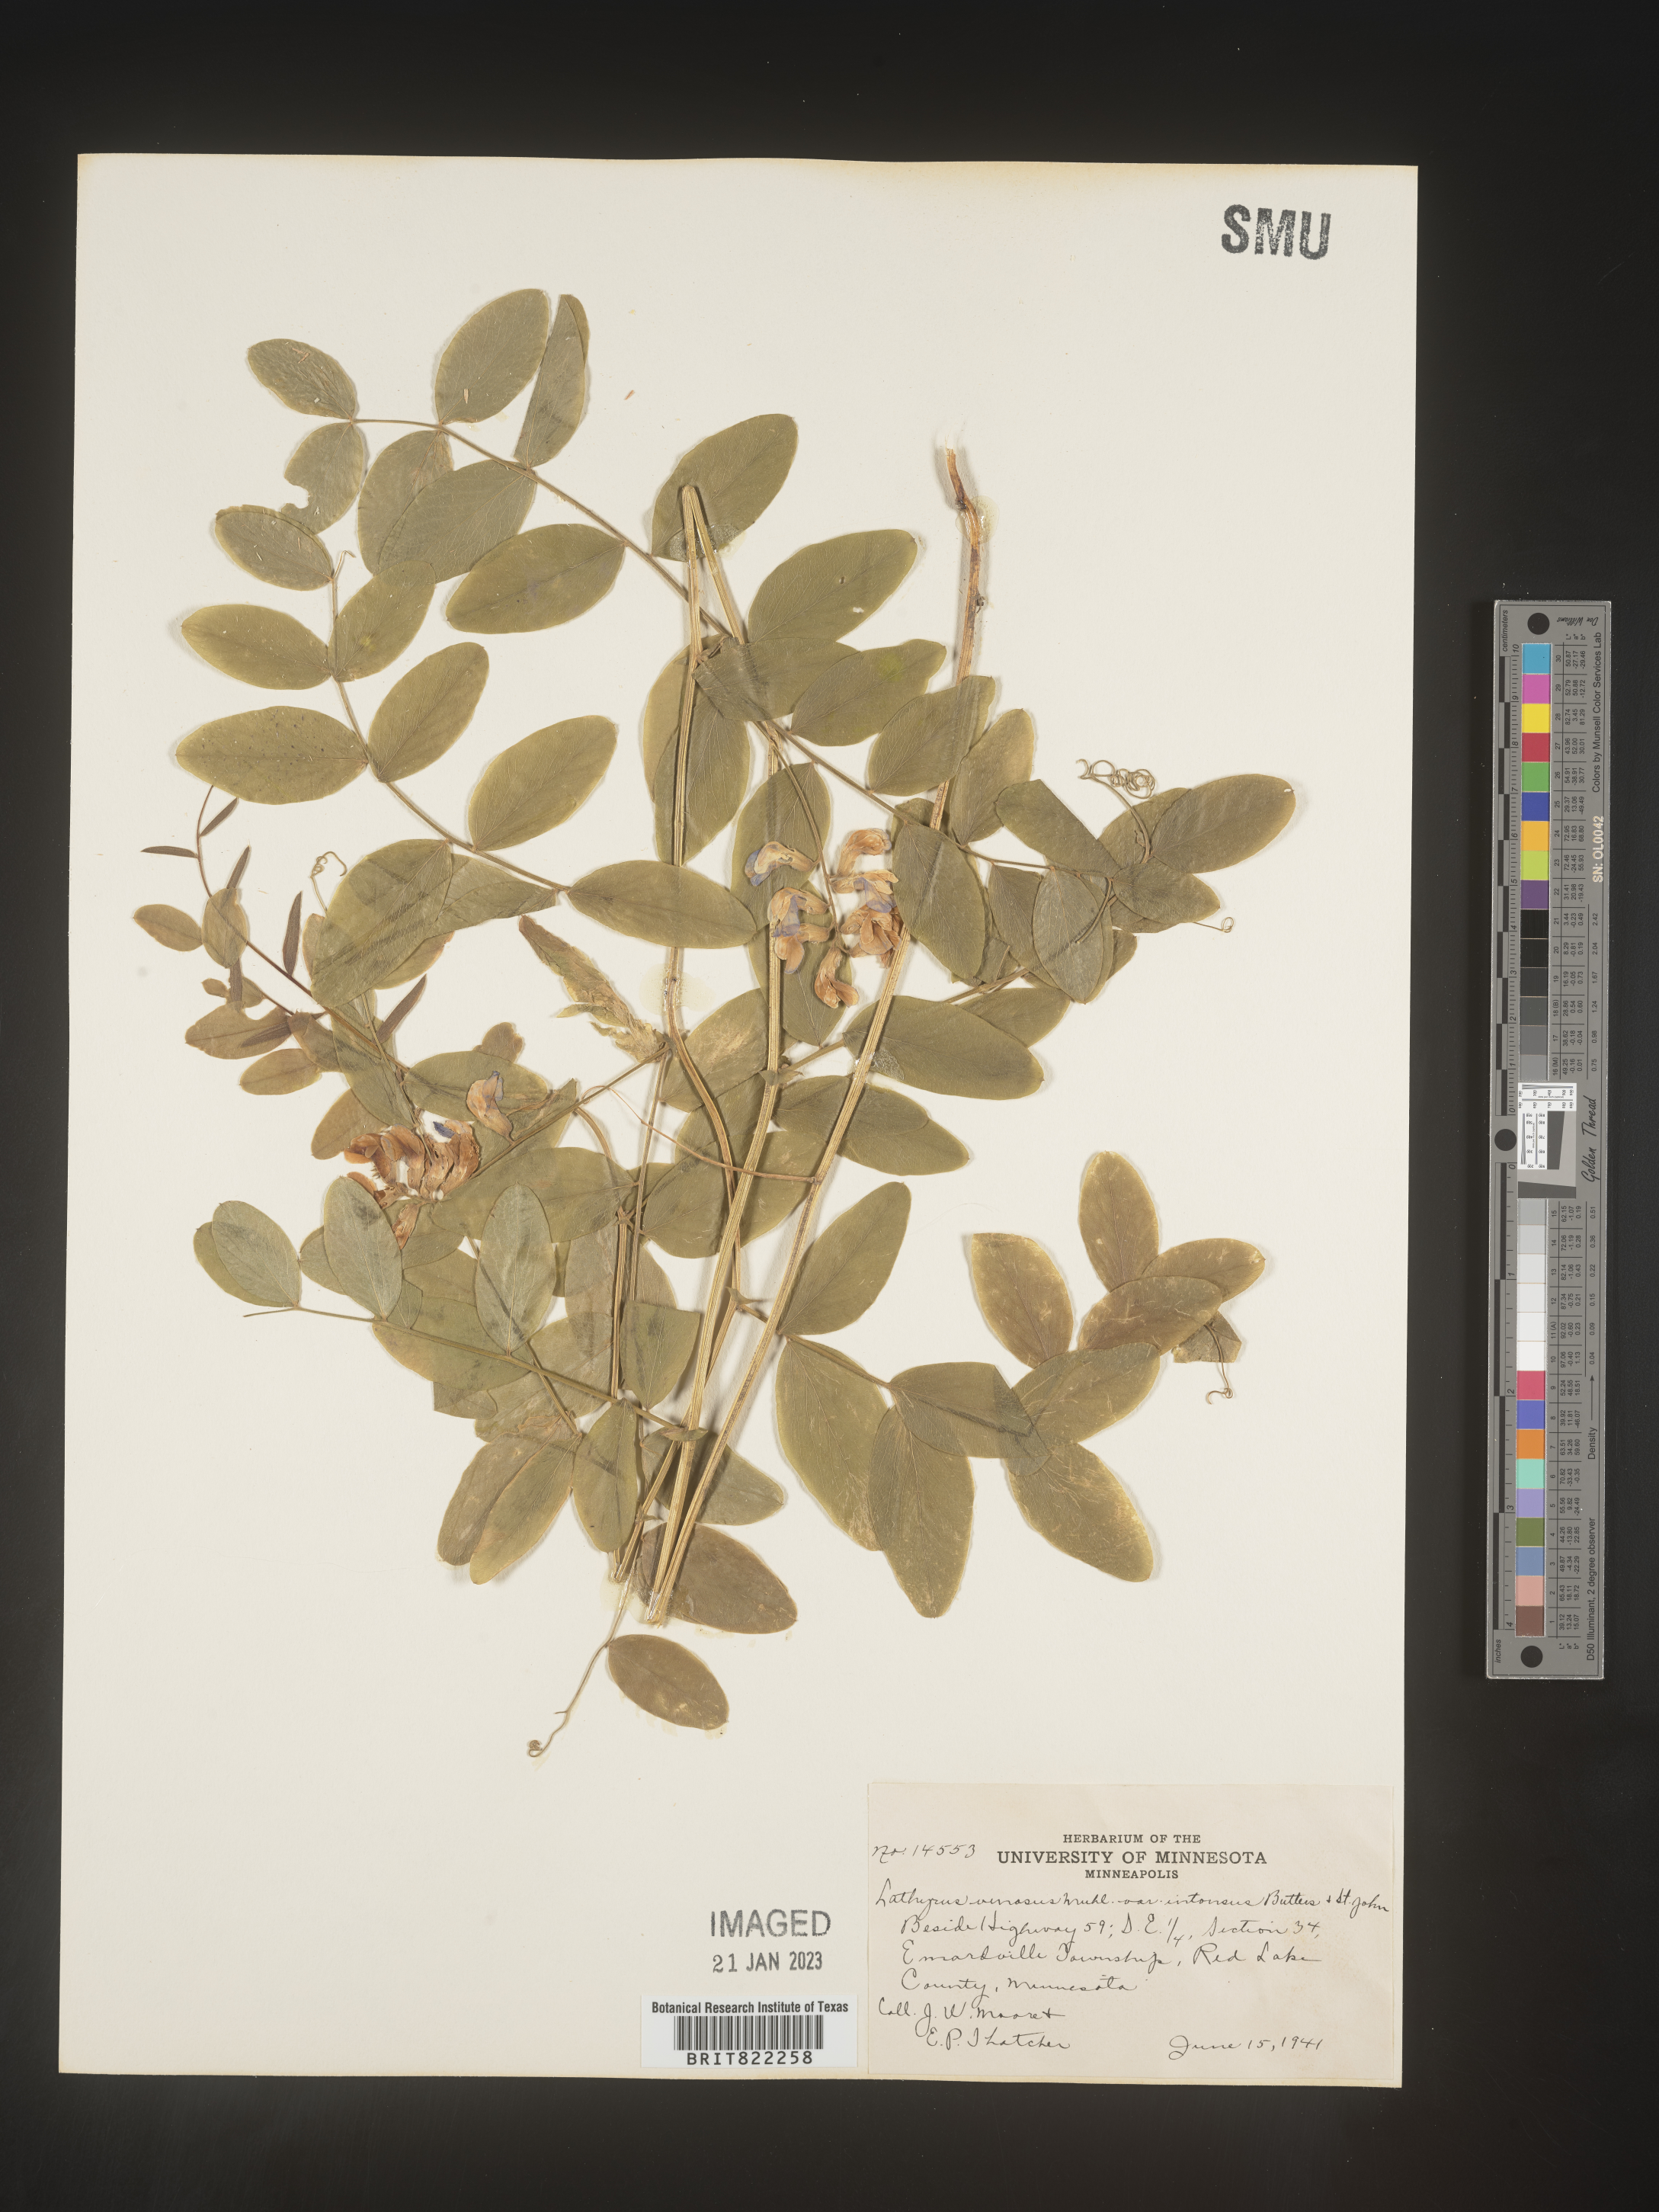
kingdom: Plantae
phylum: Tracheophyta
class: Magnoliopsida
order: Fabales
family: Fabaceae
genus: Lathyrus
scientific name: Lathyrus venosus
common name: Forest-pea
